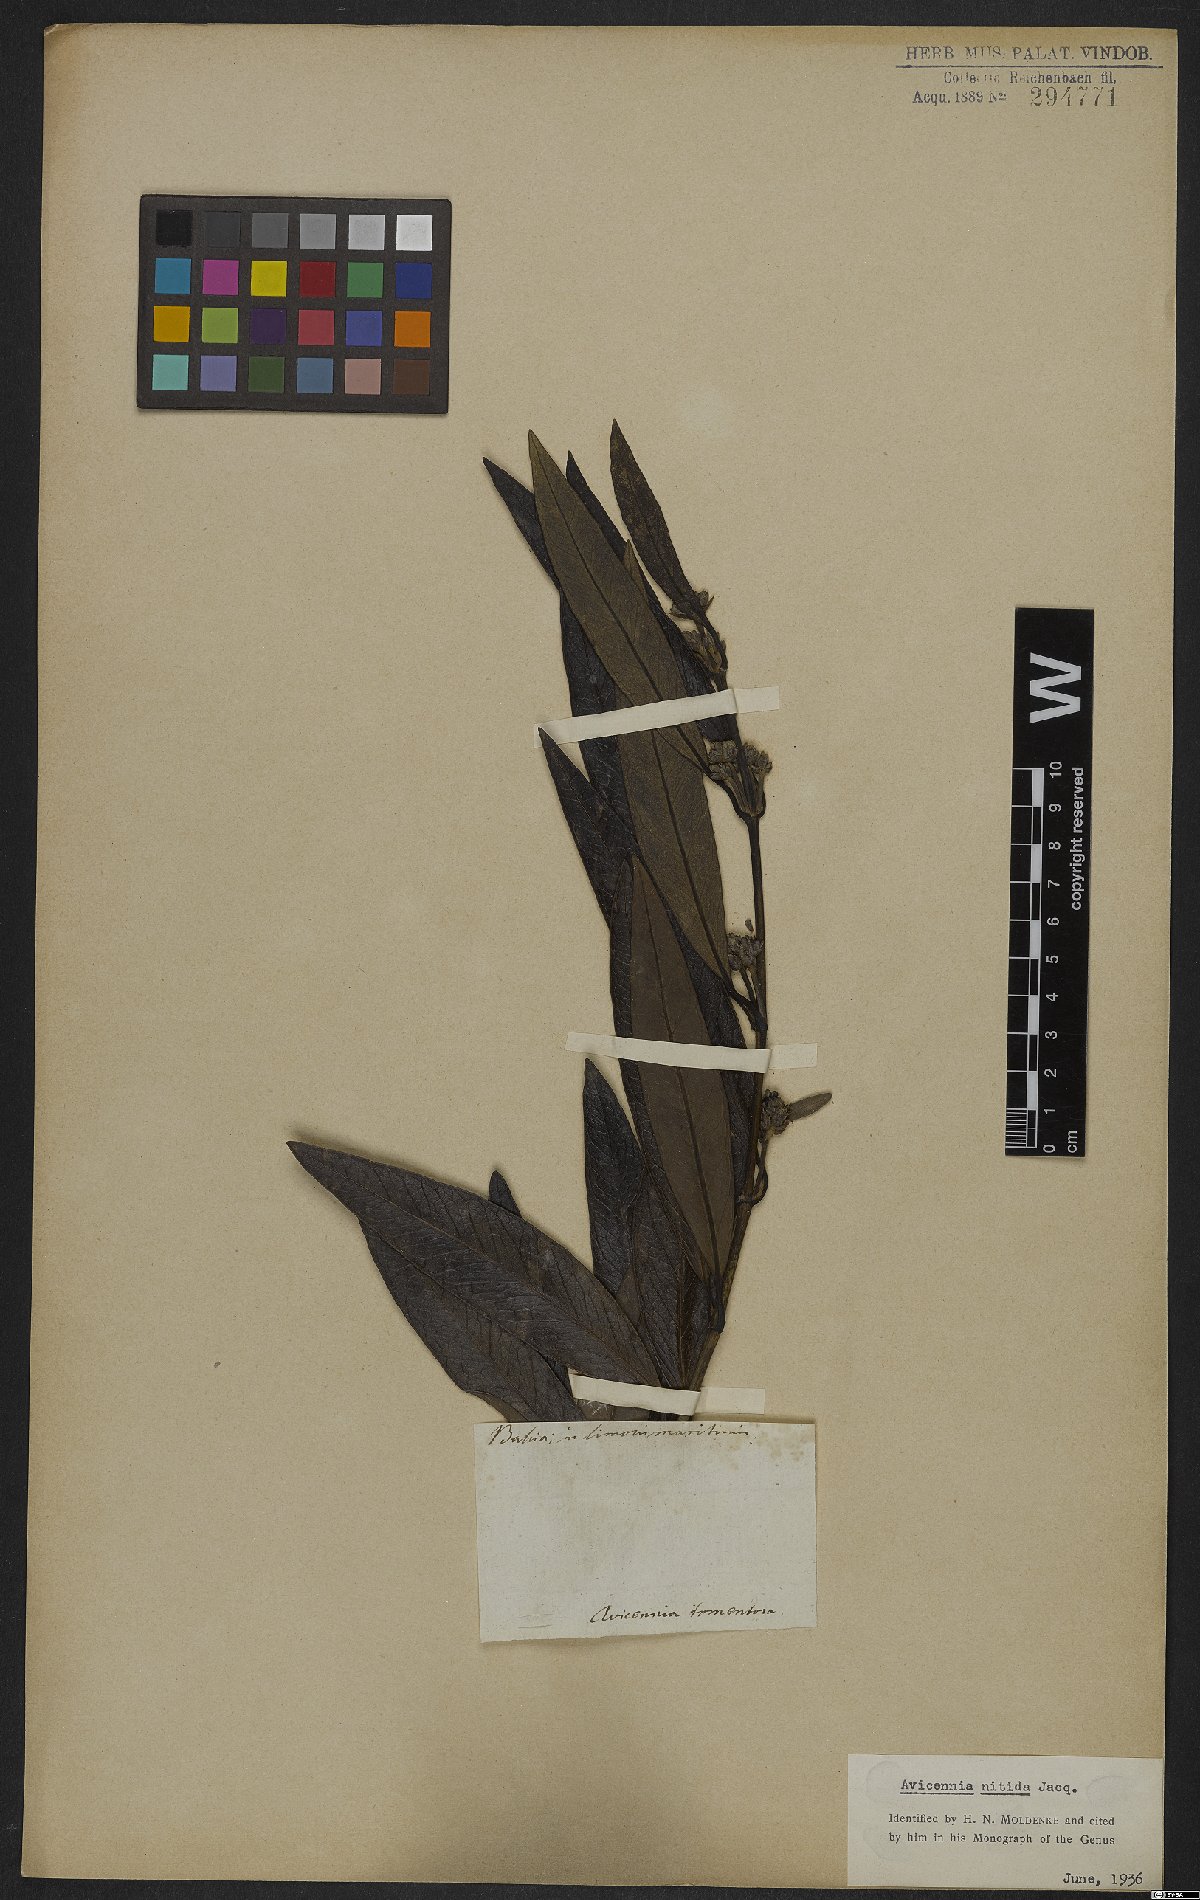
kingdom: Plantae
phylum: Tracheophyta
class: Magnoliopsida
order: Lamiales
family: Acanthaceae
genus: Avicennia
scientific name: Avicennia germinans
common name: Black mangrove
